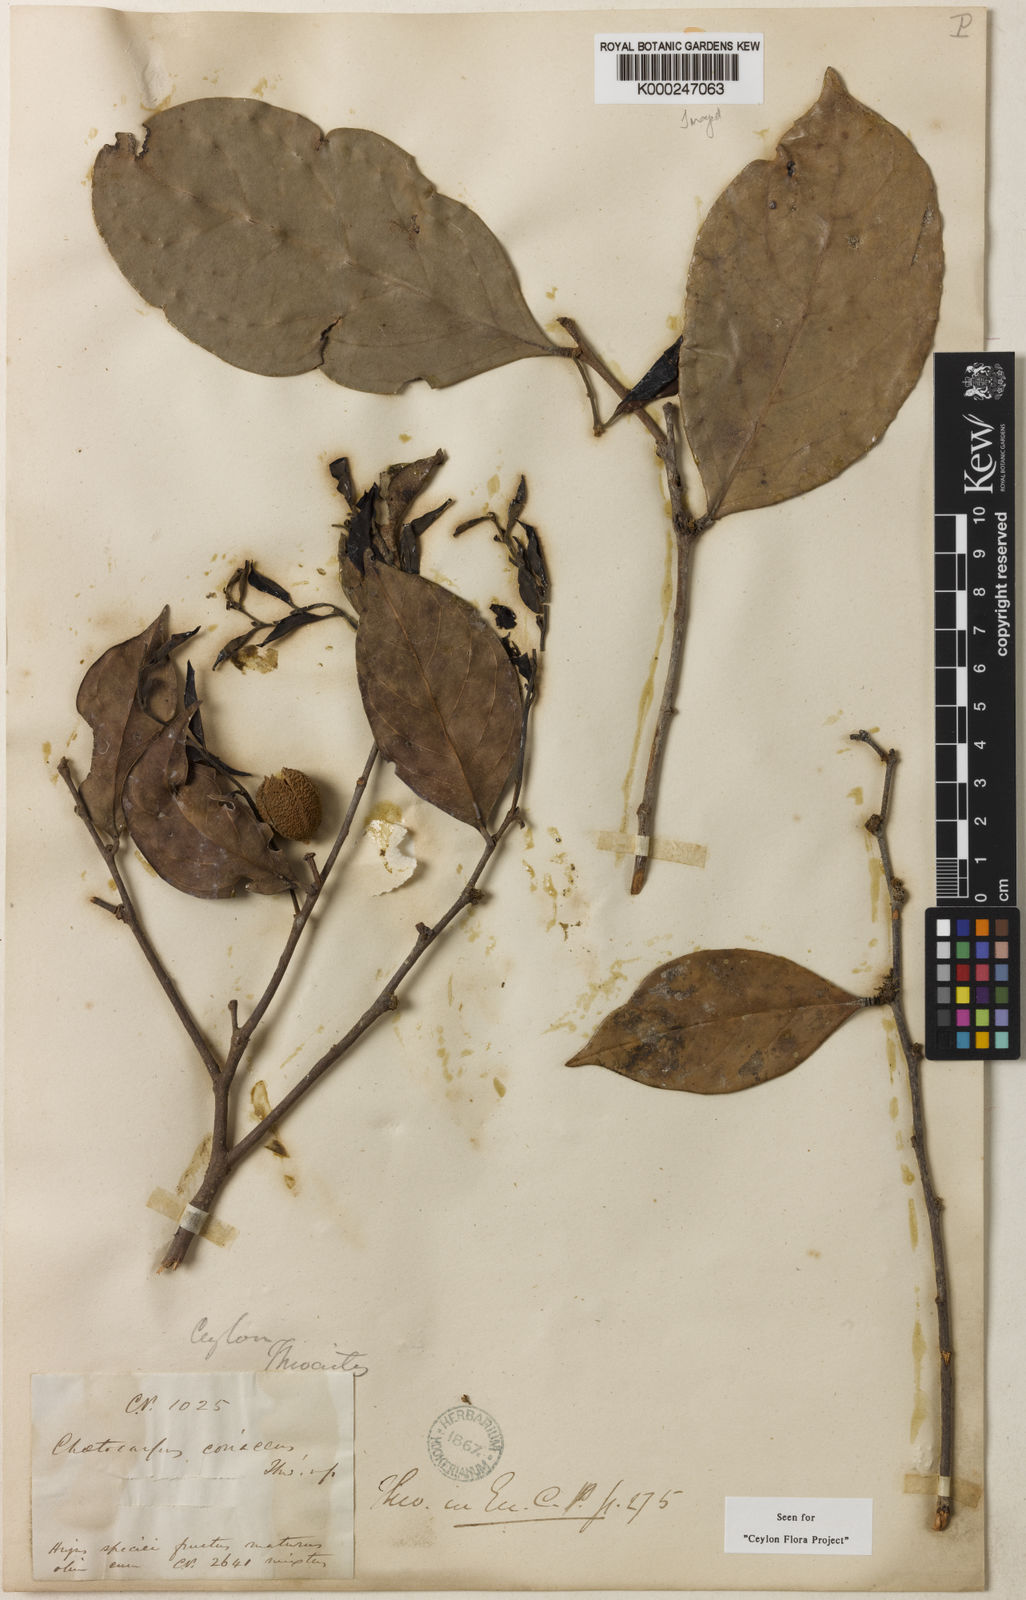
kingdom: Plantae
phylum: Tracheophyta
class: Magnoliopsida
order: Malpighiales
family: Peraceae
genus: Chaetocarpus
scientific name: Chaetocarpus coriaceus
